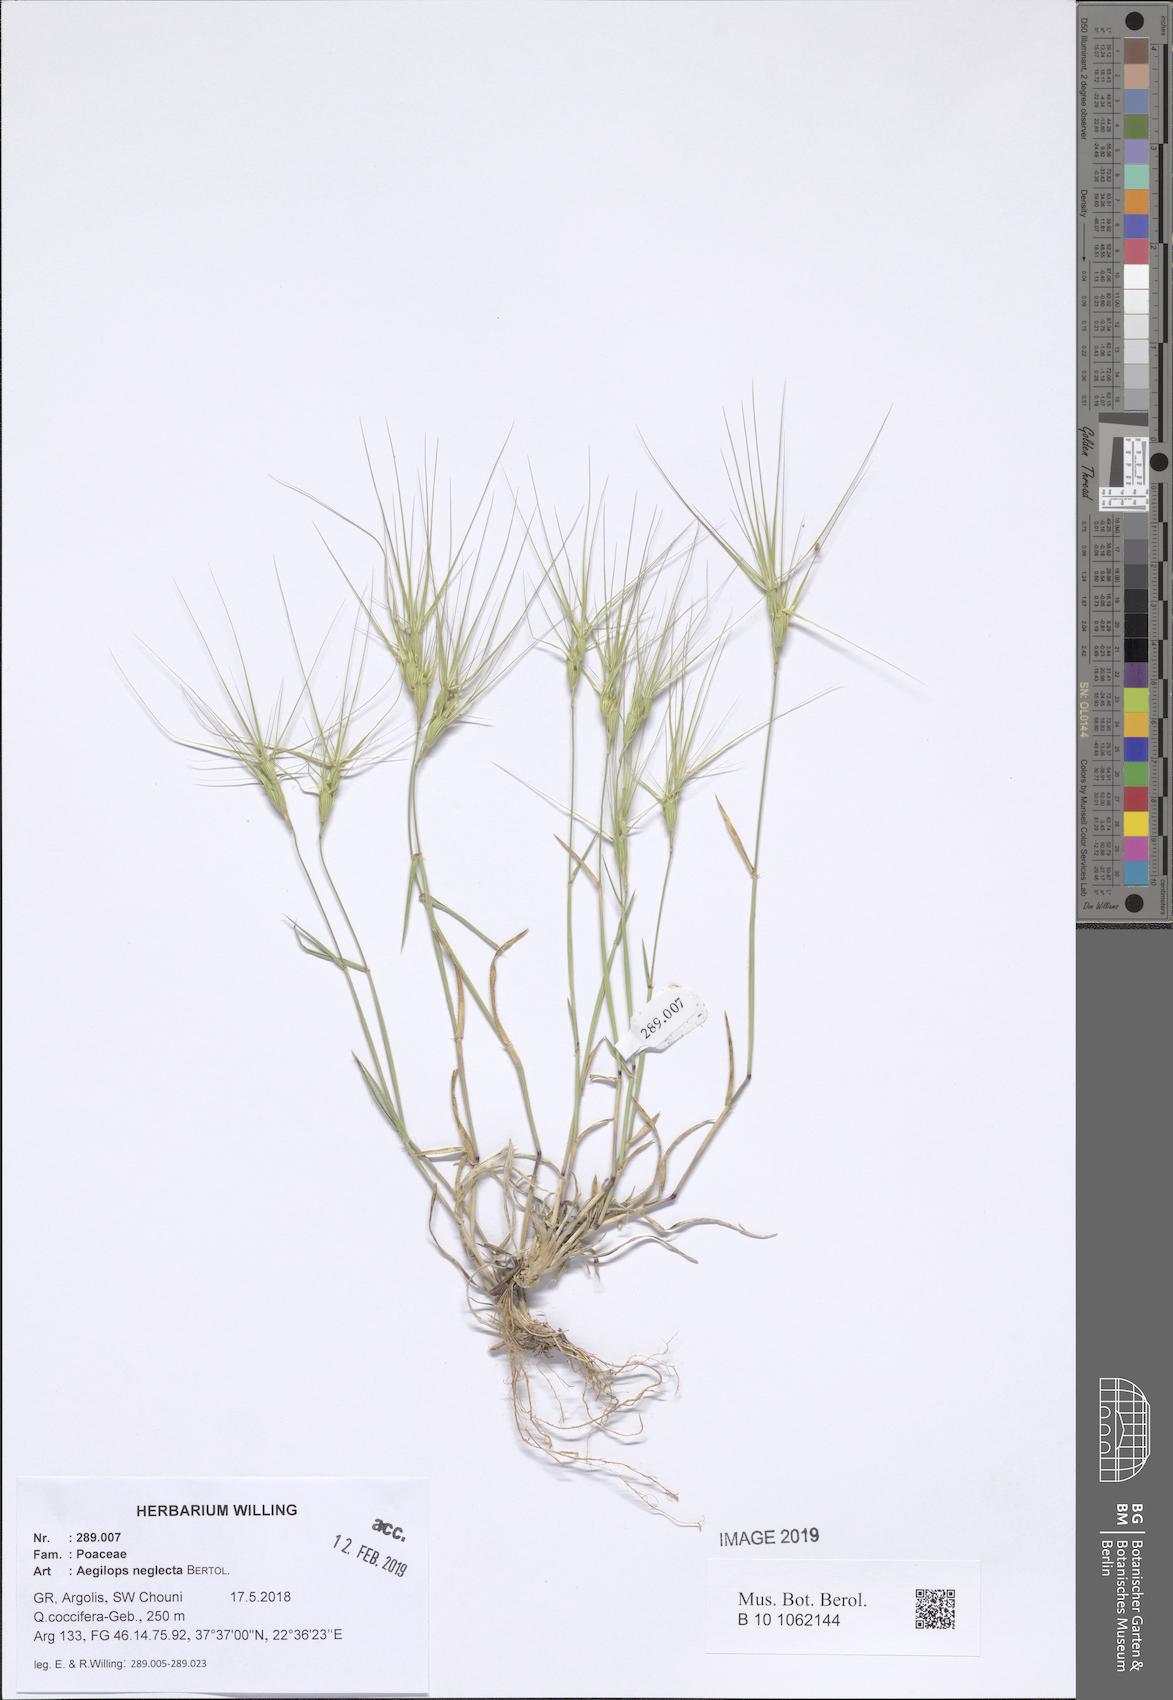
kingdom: Plantae
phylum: Tracheophyta
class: Liliopsida
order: Poales
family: Poaceae
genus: Aegilops
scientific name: Aegilops neglecta
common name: Three-awn goat grass
